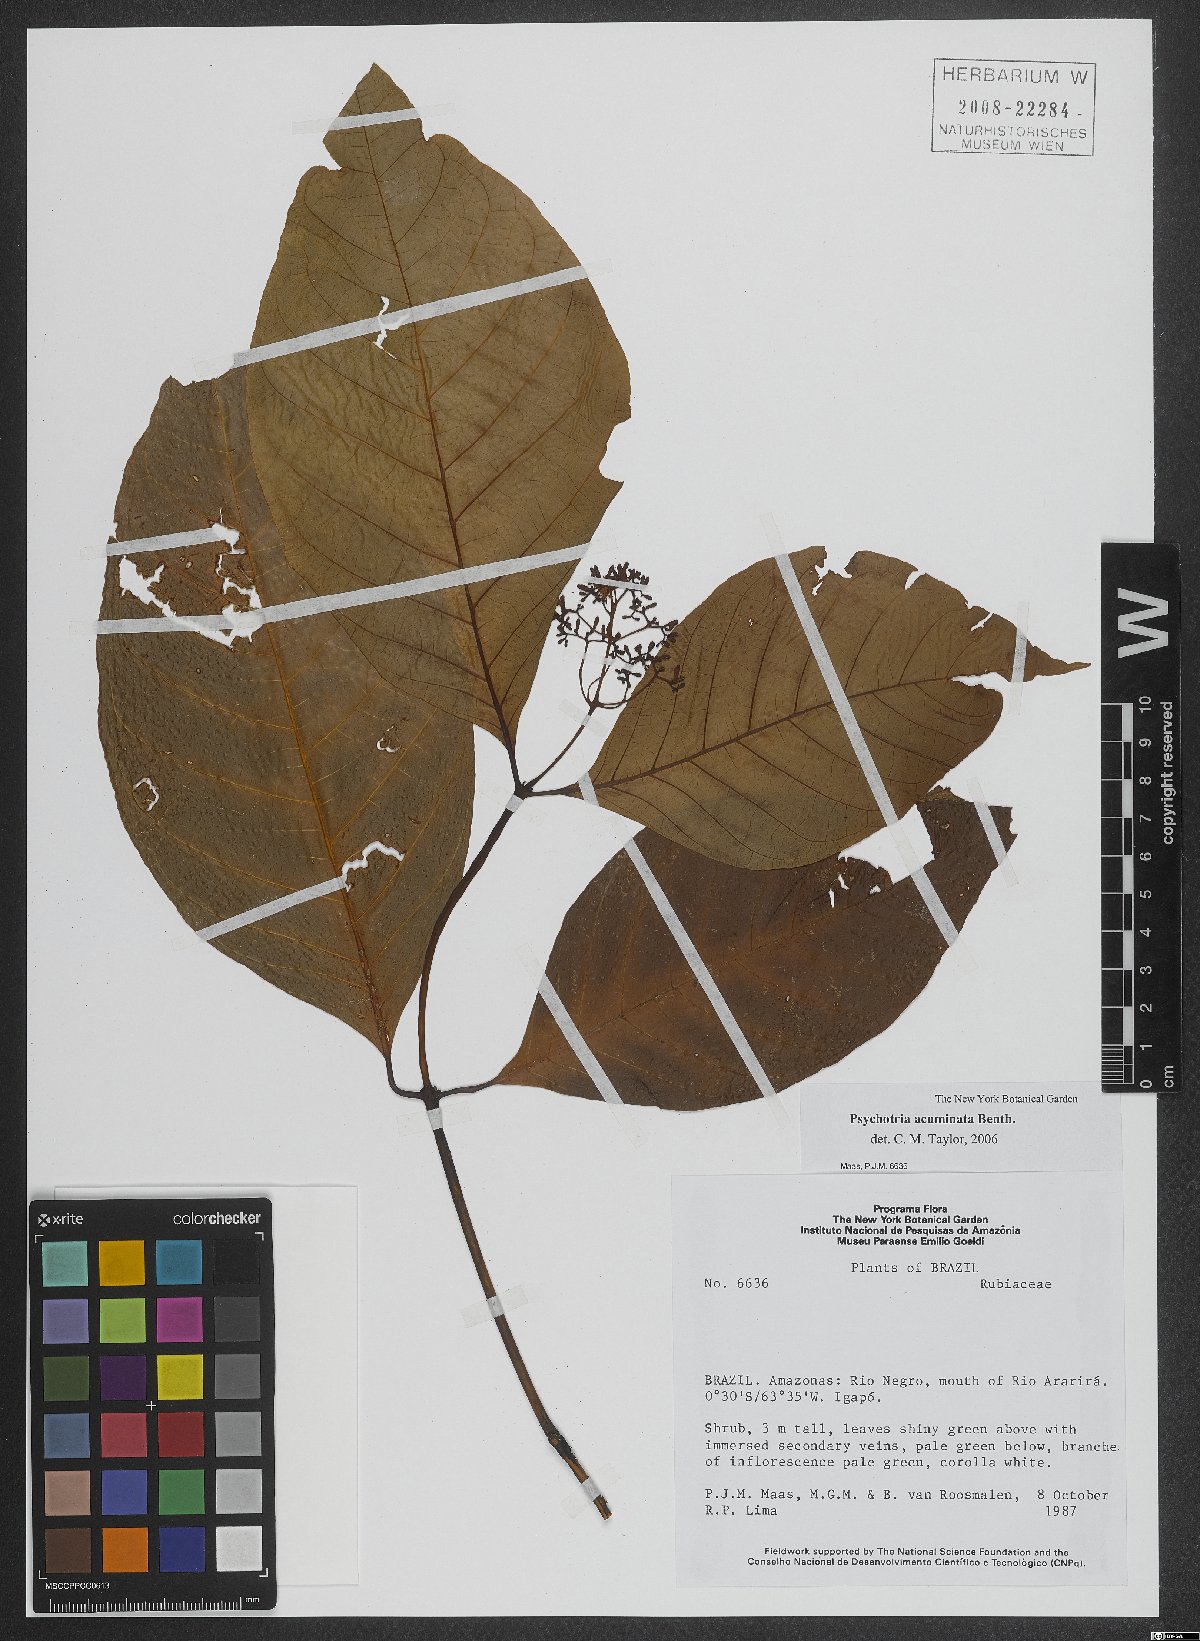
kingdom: Plantae
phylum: Tracheophyta
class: Magnoliopsida
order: Gentianales
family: Rubiaceae
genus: Palicourea
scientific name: Palicourea acuminata
